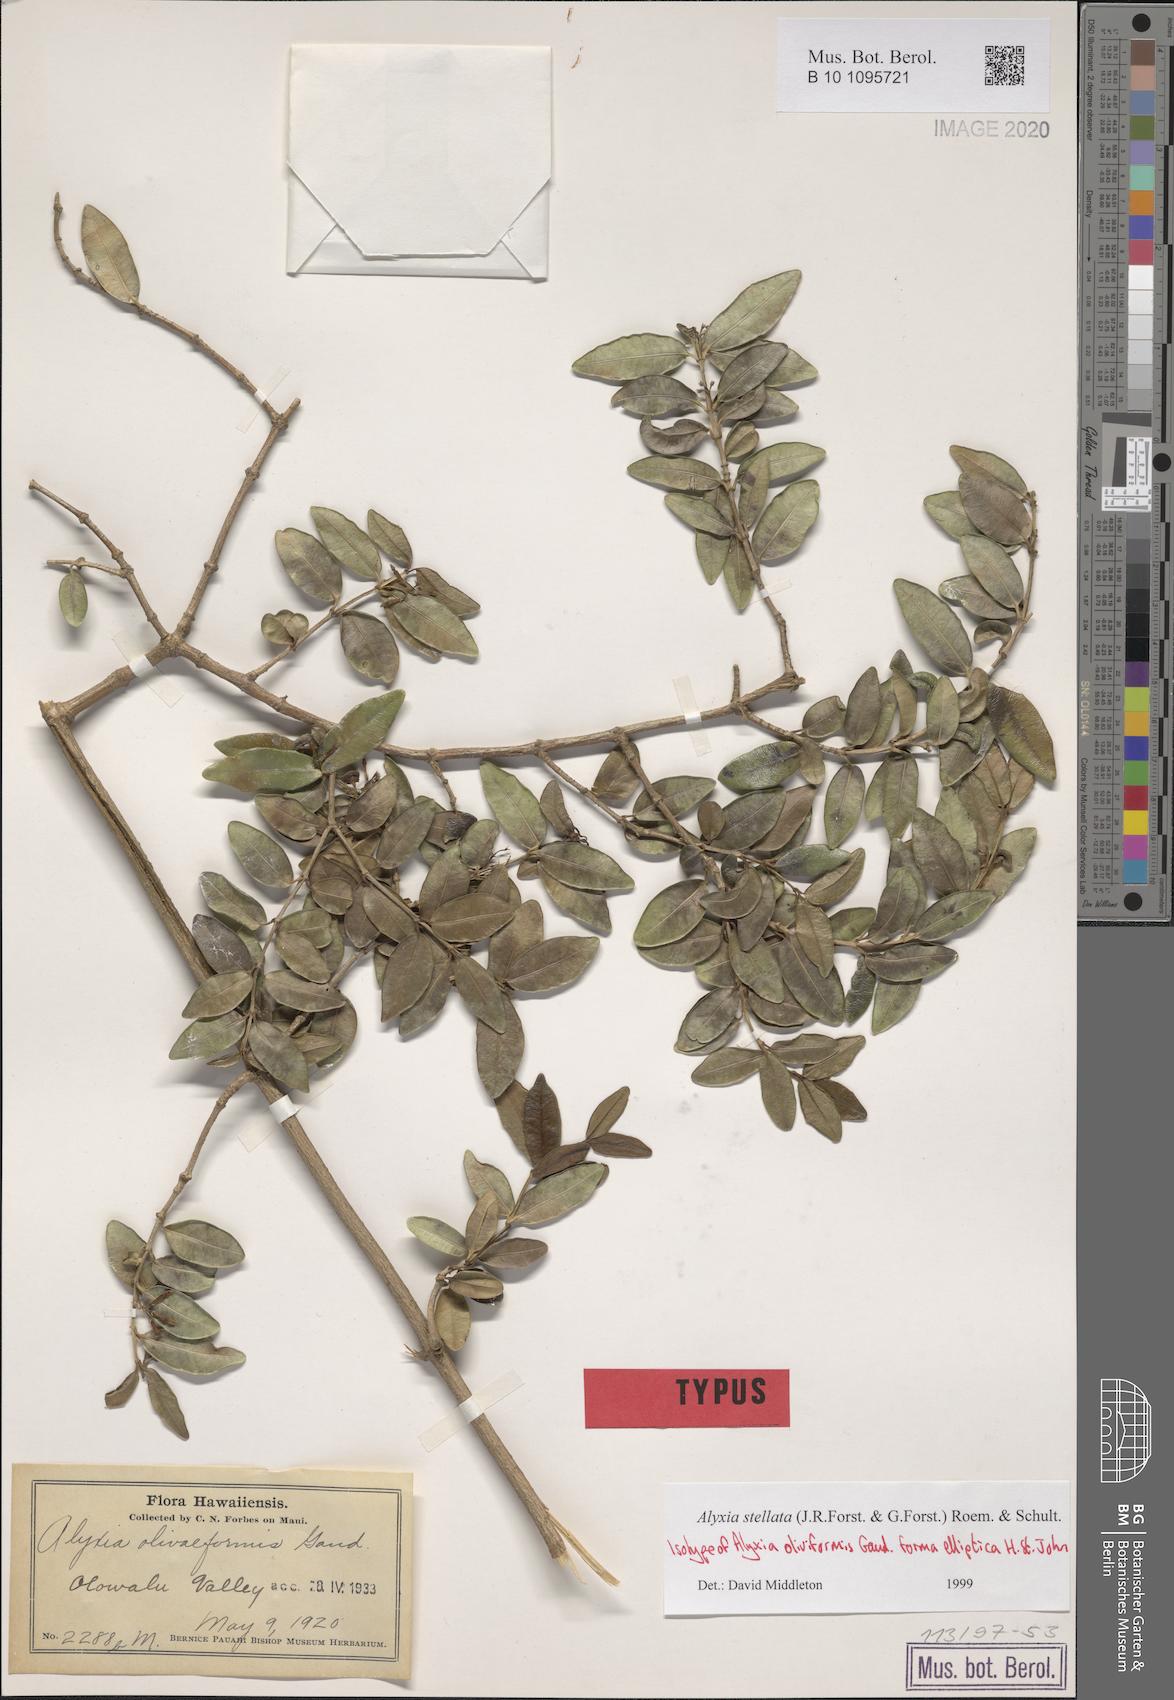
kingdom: Plantae
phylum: Tracheophyta
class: Magnoliopsida
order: Gentianales
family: Apocynaceae
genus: Alyxia
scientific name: Alyxia stellata
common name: Maile
